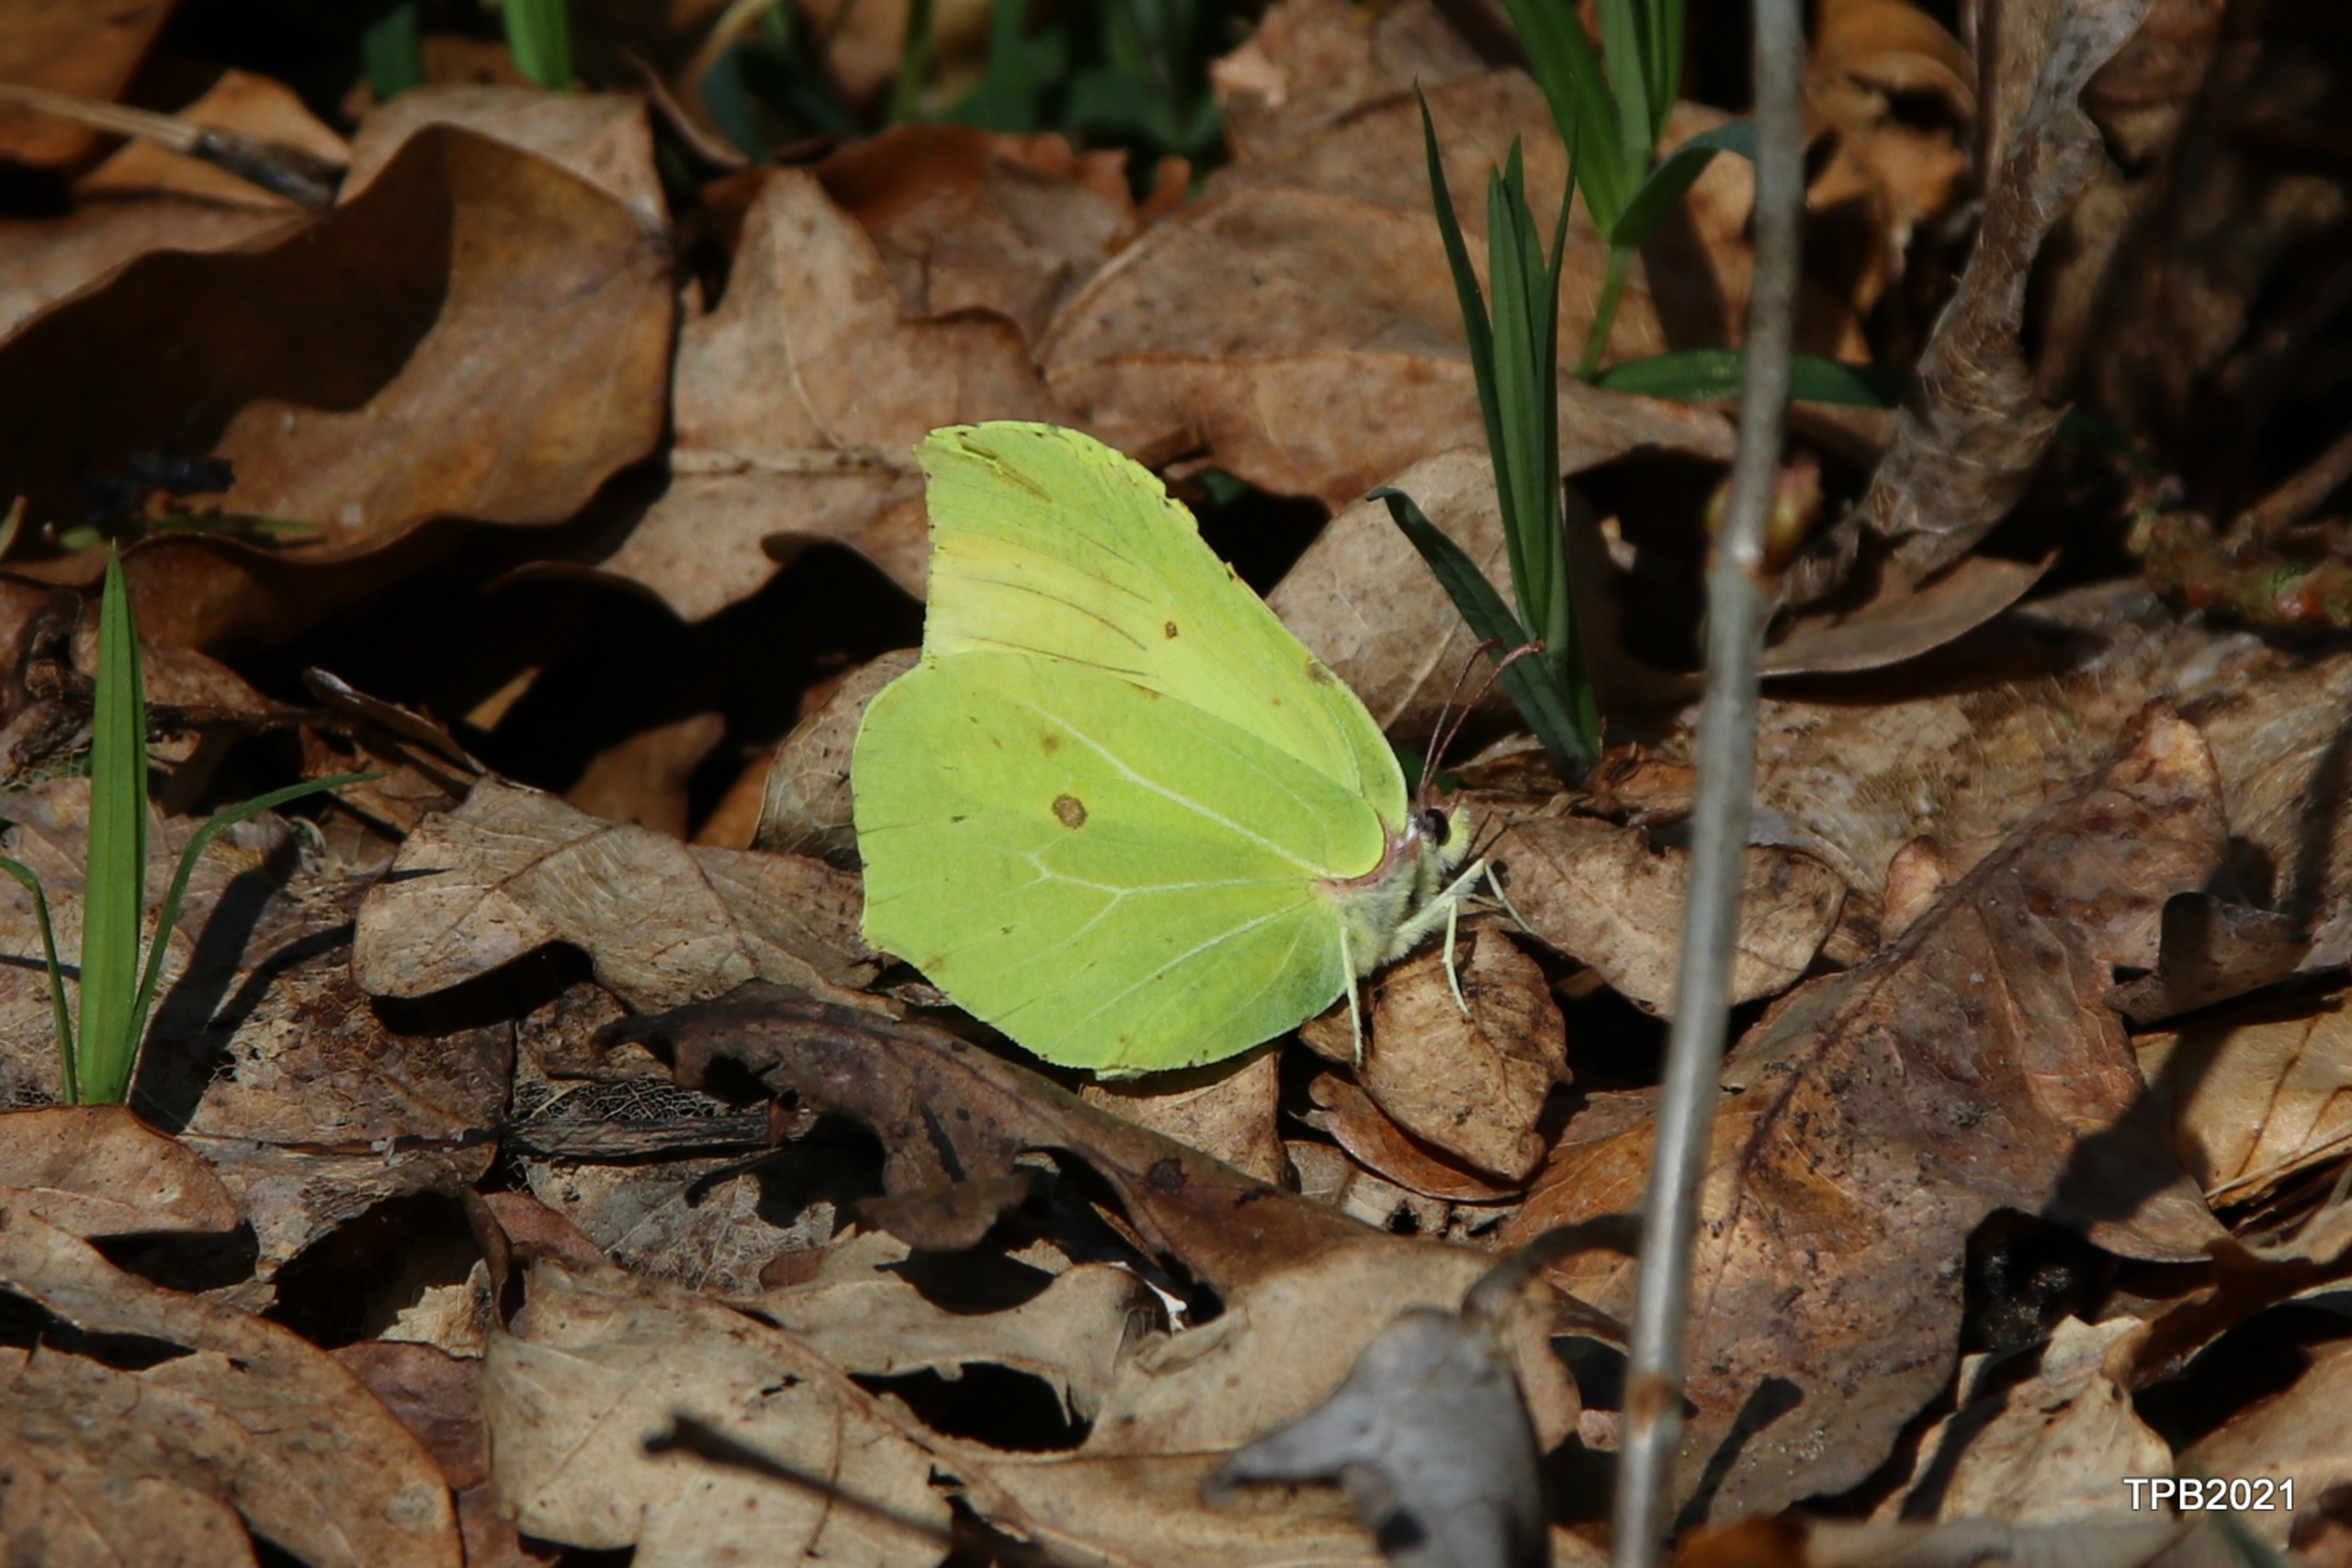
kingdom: Animalia
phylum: Arthropoda
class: Insecta
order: Lepidoptera
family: Pieridae
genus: Gonepteryx
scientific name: Gonepteryx rhamni
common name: Citronsommerfugl
